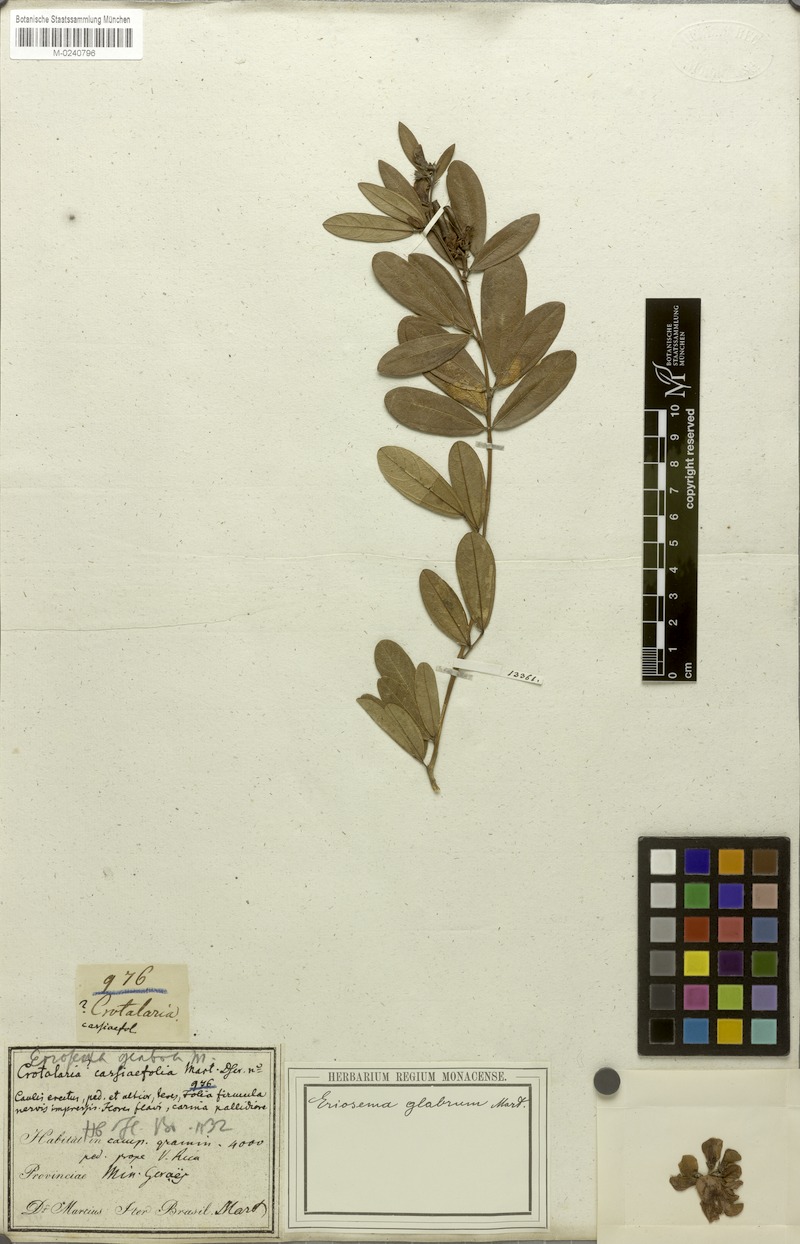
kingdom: Plantae
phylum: Tracheophyta
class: Magnoliopsida
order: Fabales
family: Fabaceae
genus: Eriosema
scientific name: Eriosema glabrum
